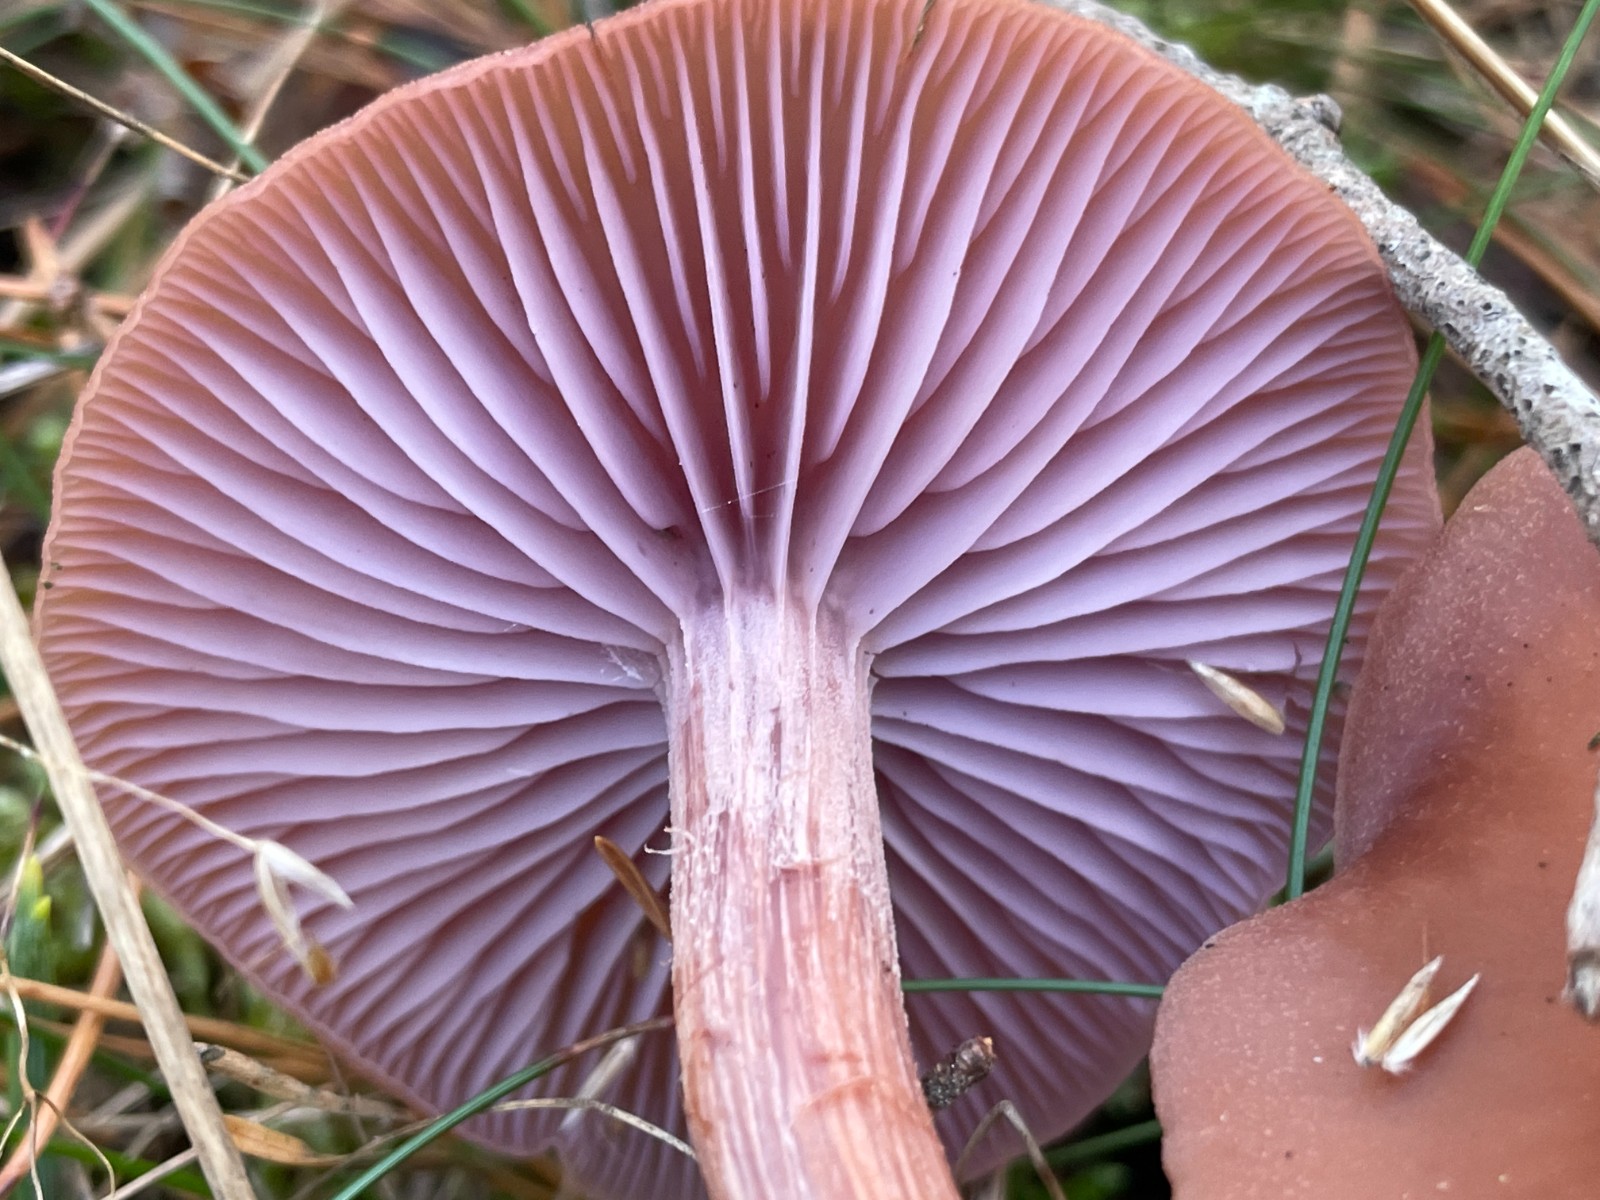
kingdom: Fungi
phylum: Basidiomycota
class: Agaricomycetes
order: Agaricales
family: Hydnangiaceae
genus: Laccaria
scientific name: Laccaria bicolor
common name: tvefarvet ametysthat
